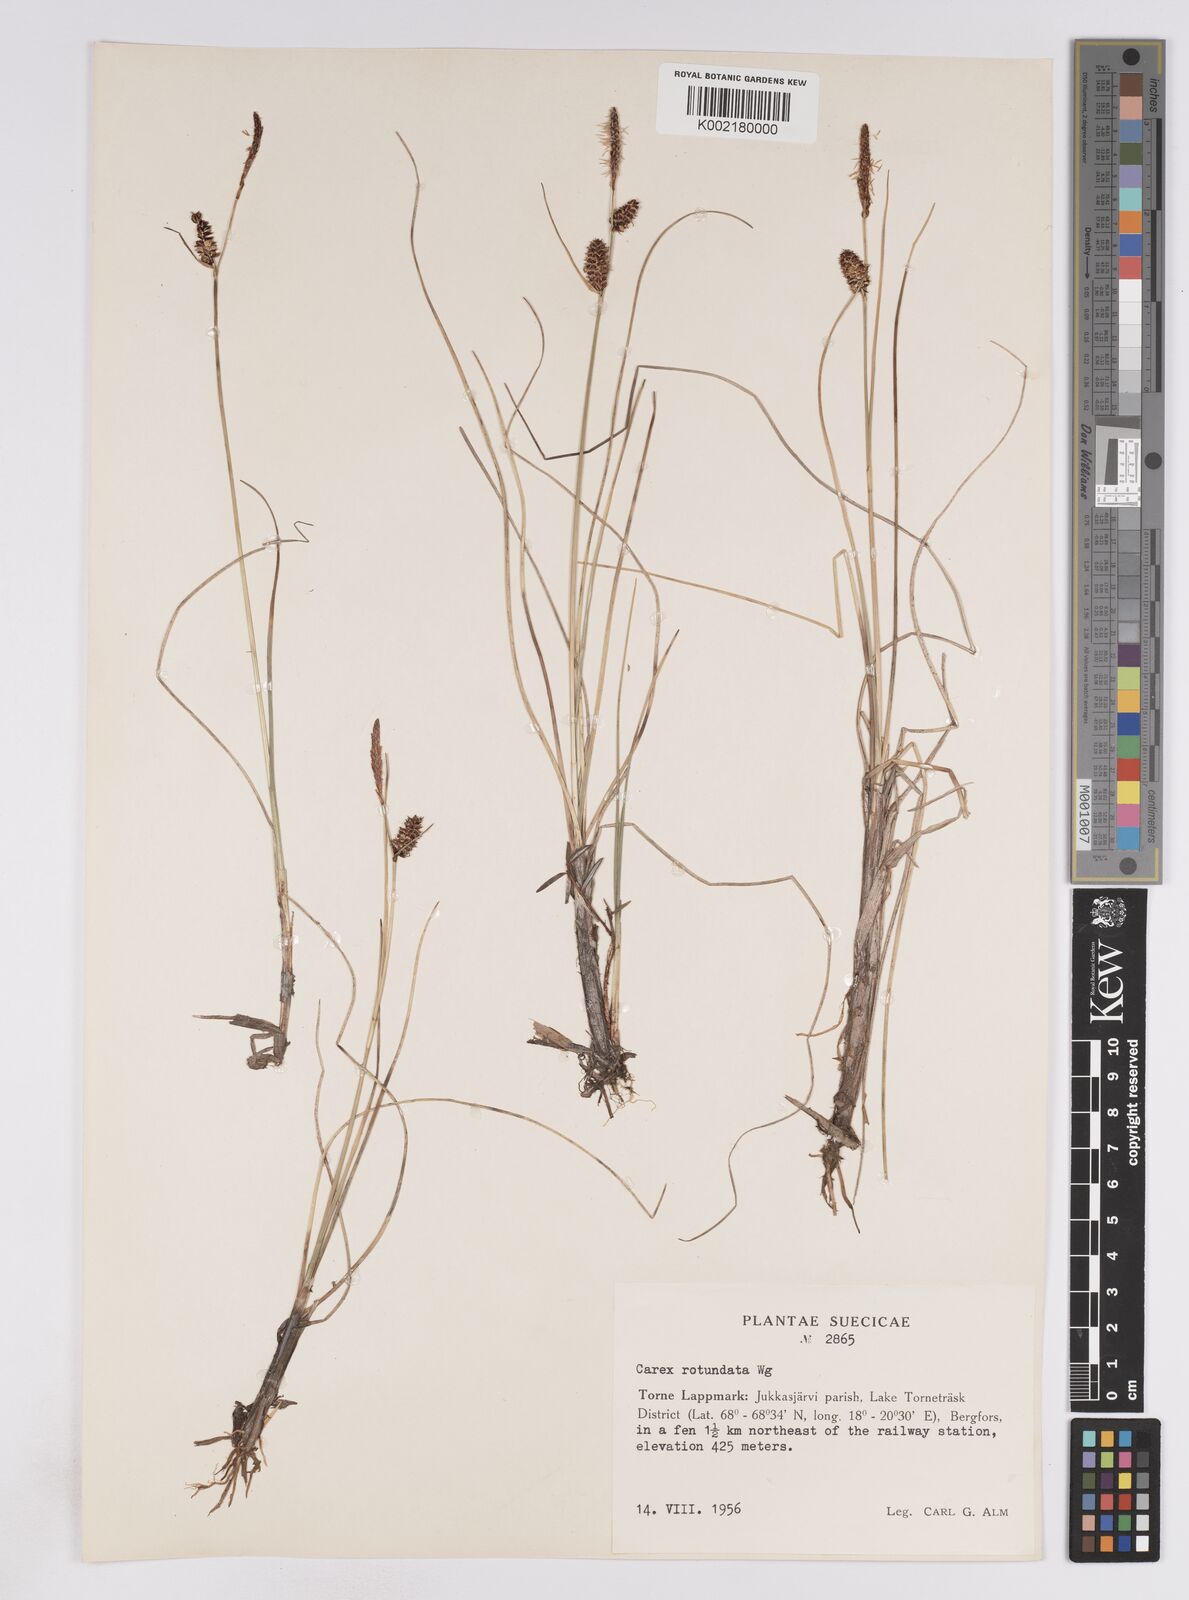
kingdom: Plantae
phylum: Tracheophyta
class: Liliopsida
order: Poales
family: Cyperaceae
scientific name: Cyperaceae
